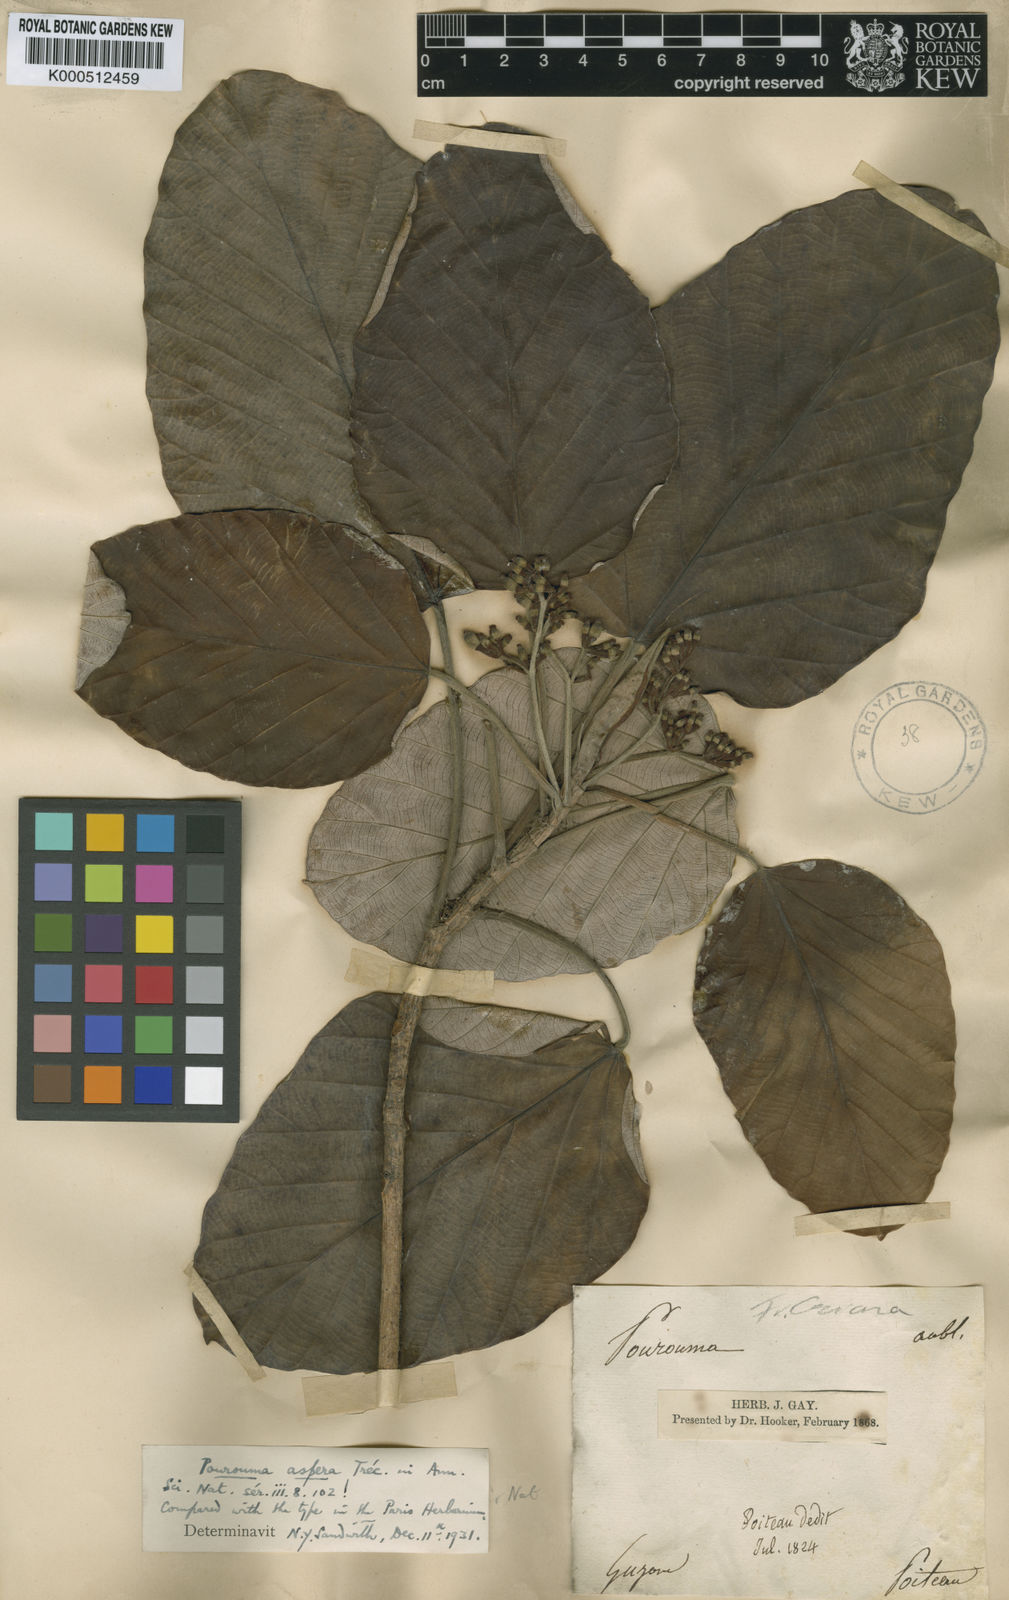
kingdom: Plantae
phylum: Tracheophyta
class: Magnoliopsida
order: Rosales
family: Urticaceae
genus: Pourouma
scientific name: Pourouma guianensis
